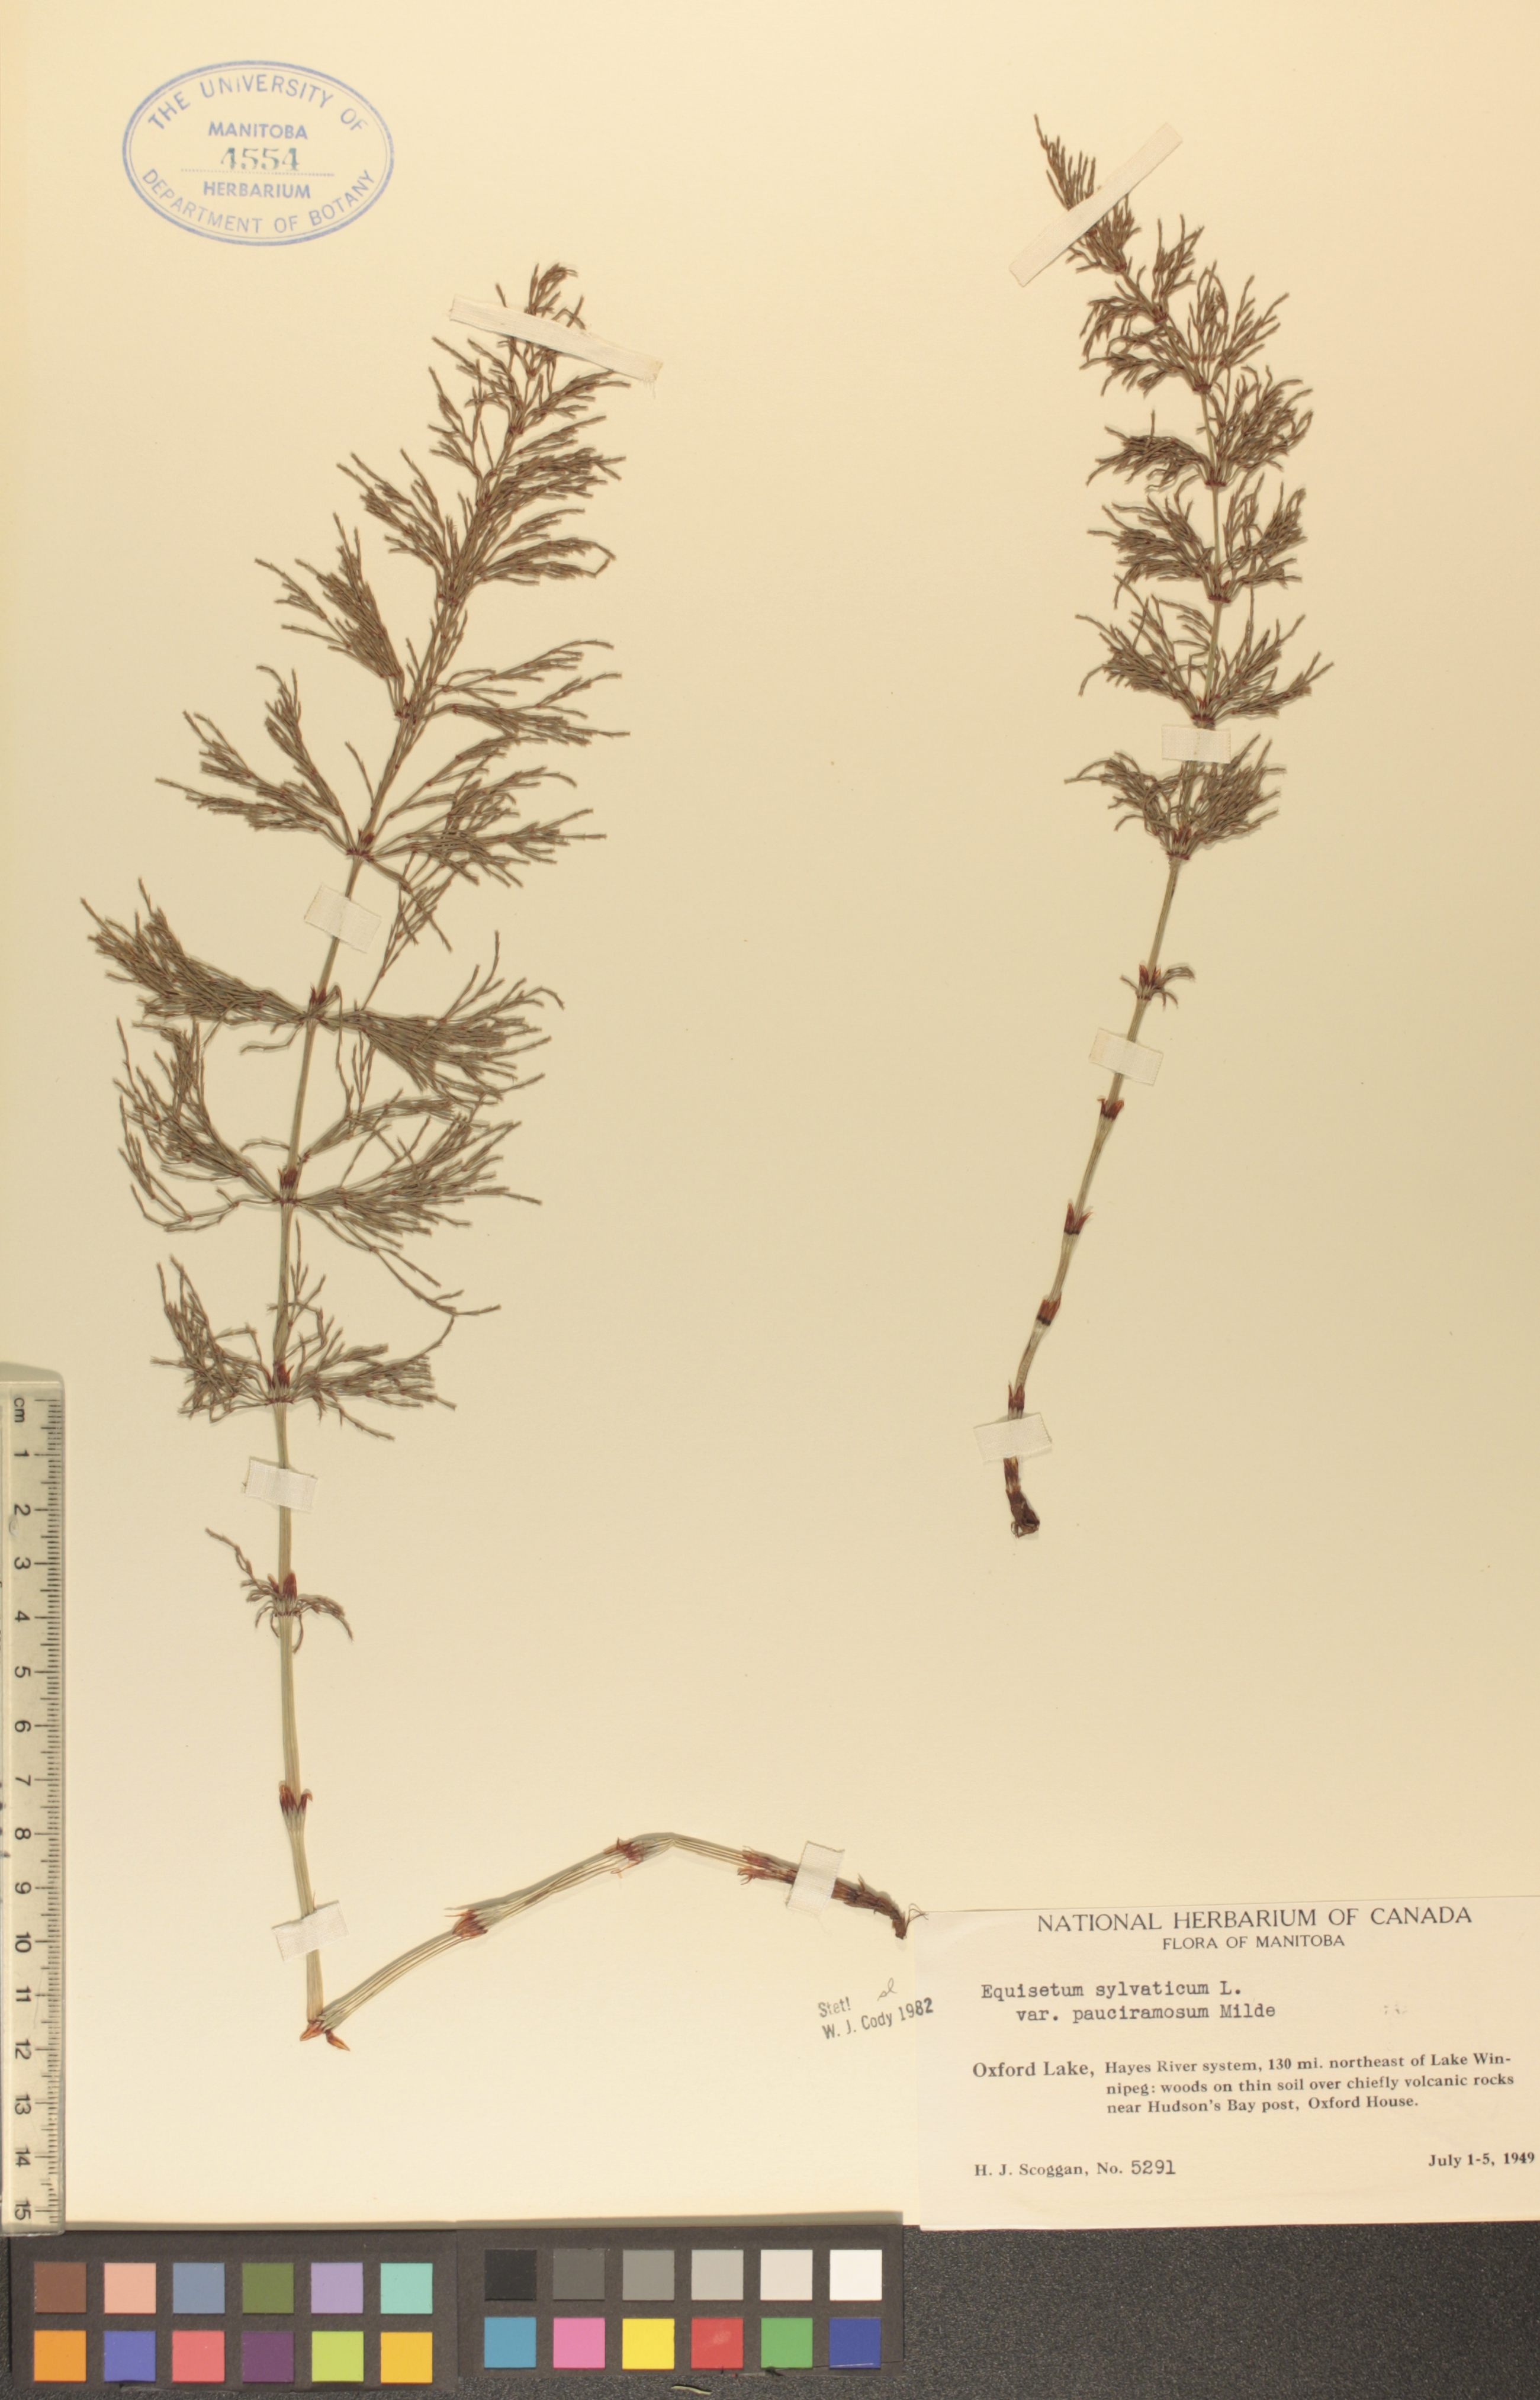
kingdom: Plantae
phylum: Tracheophyta
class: Polypodiopsida
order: Equisetales
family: Equisetaceae
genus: Equisetum
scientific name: Equisetum sylvaticum
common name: Wood horsetail
